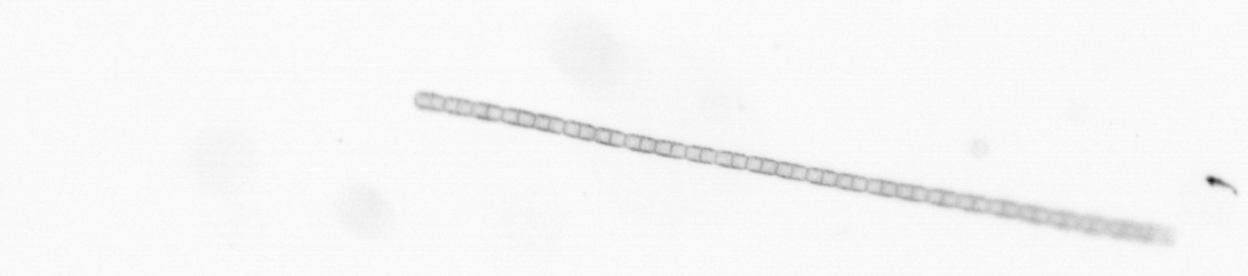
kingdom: Chromista
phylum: Ochrophyta
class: Bacillariophyceae
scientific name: Bacillariophyceae
